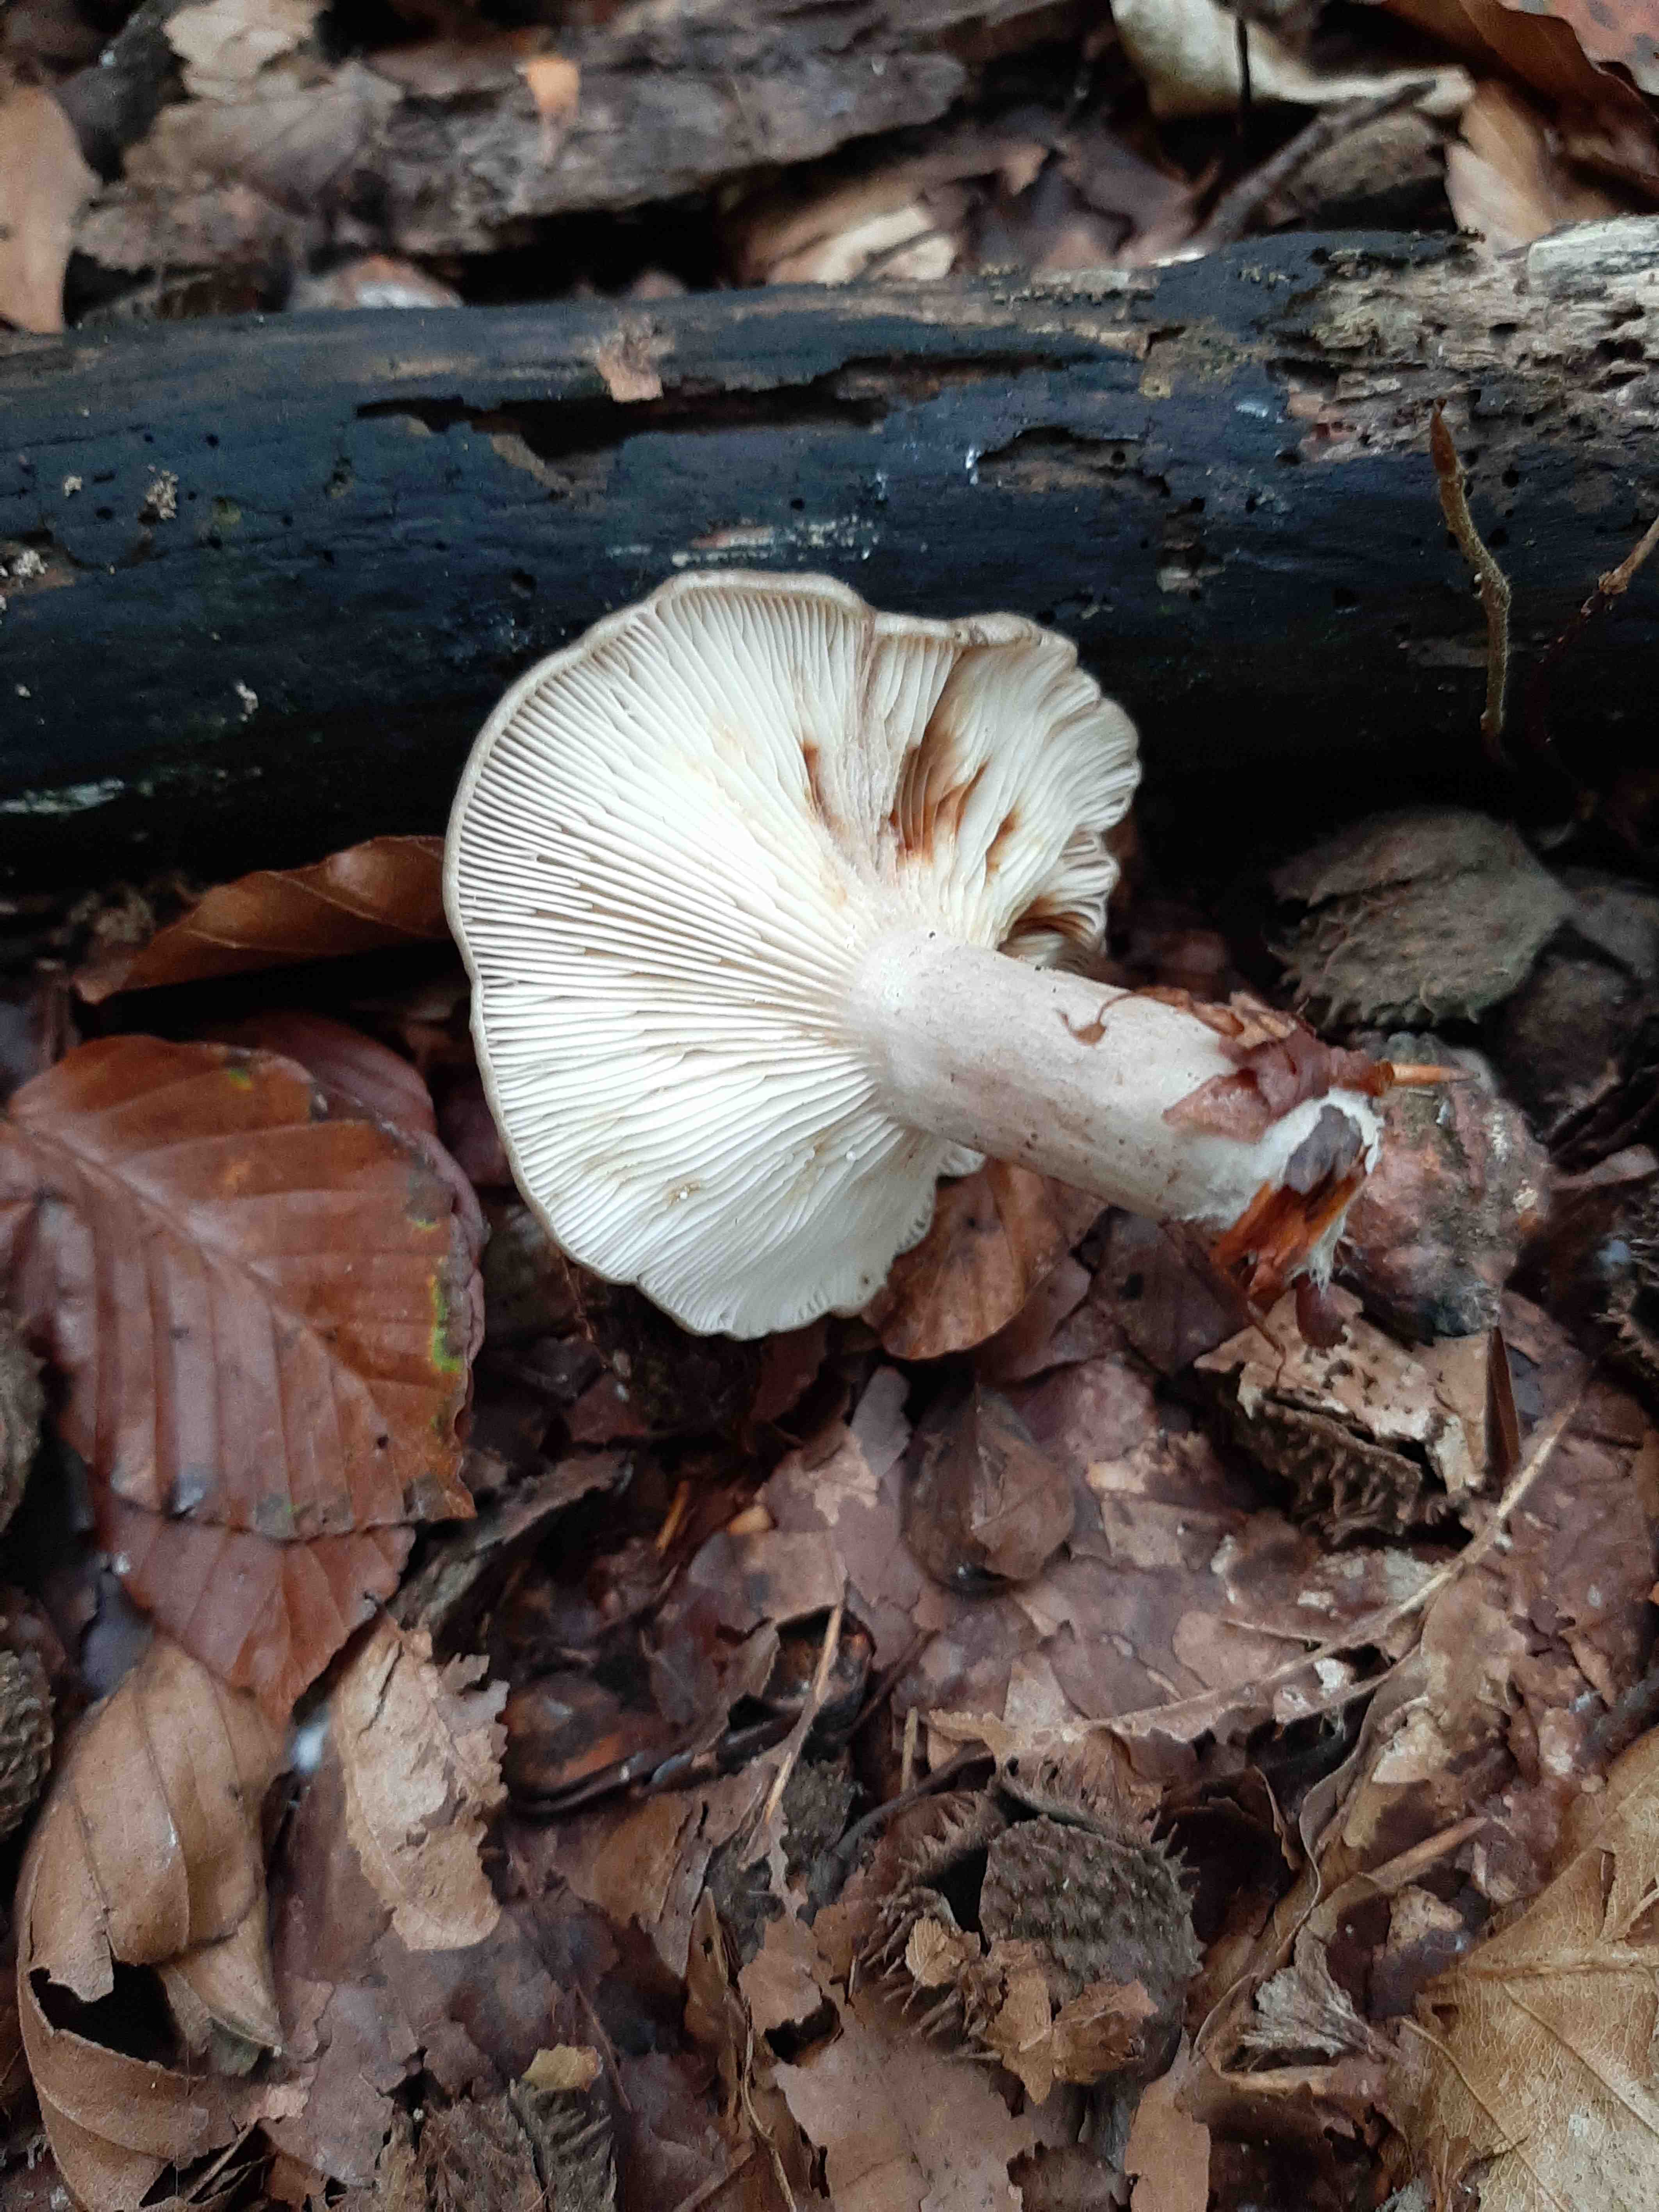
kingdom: Fungi
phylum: Basidiomycota
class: Agaricomycetes
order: Russulales
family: Russulaceae
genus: Lactarius
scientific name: Lactarius blennius
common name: dråbeplettet mælkehat
